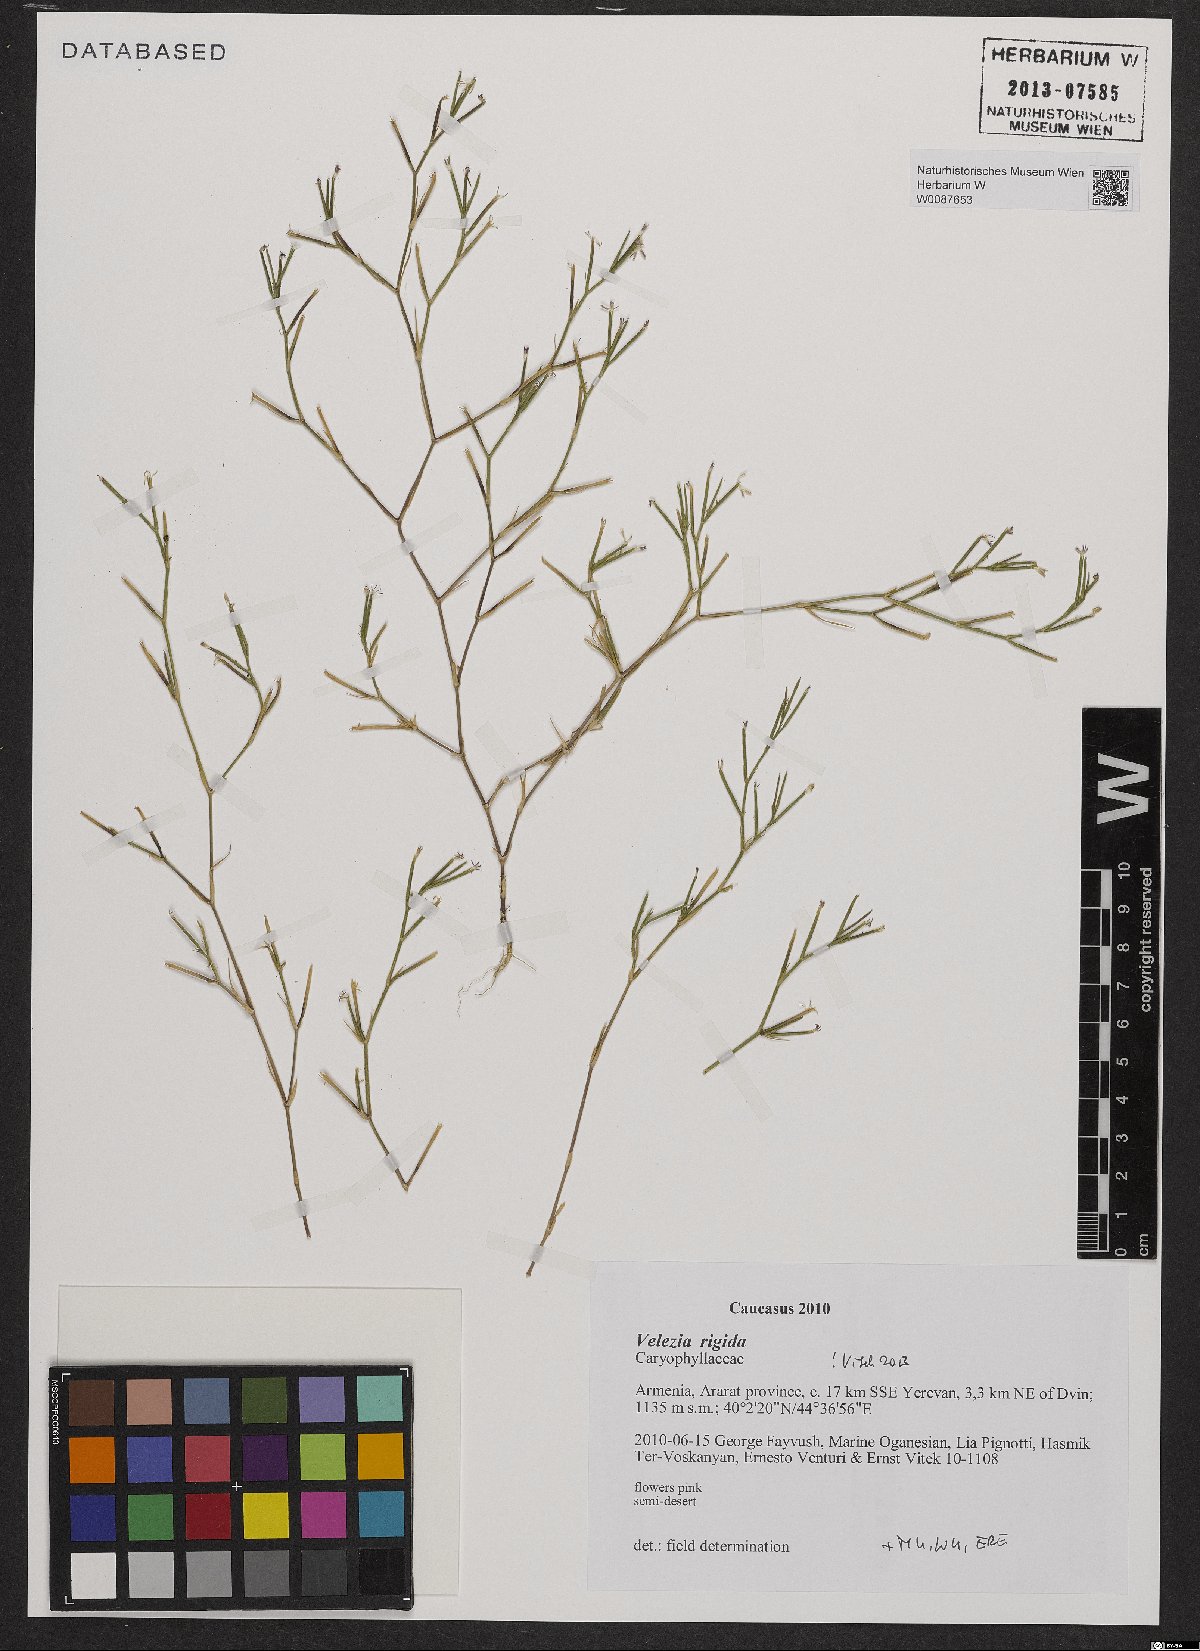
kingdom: Plantae
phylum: Tracheophyta
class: Magnoliopsida
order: Caryophyllales
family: Caryophyllaceae
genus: Dianthus
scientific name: Dianthus nudiflorus
